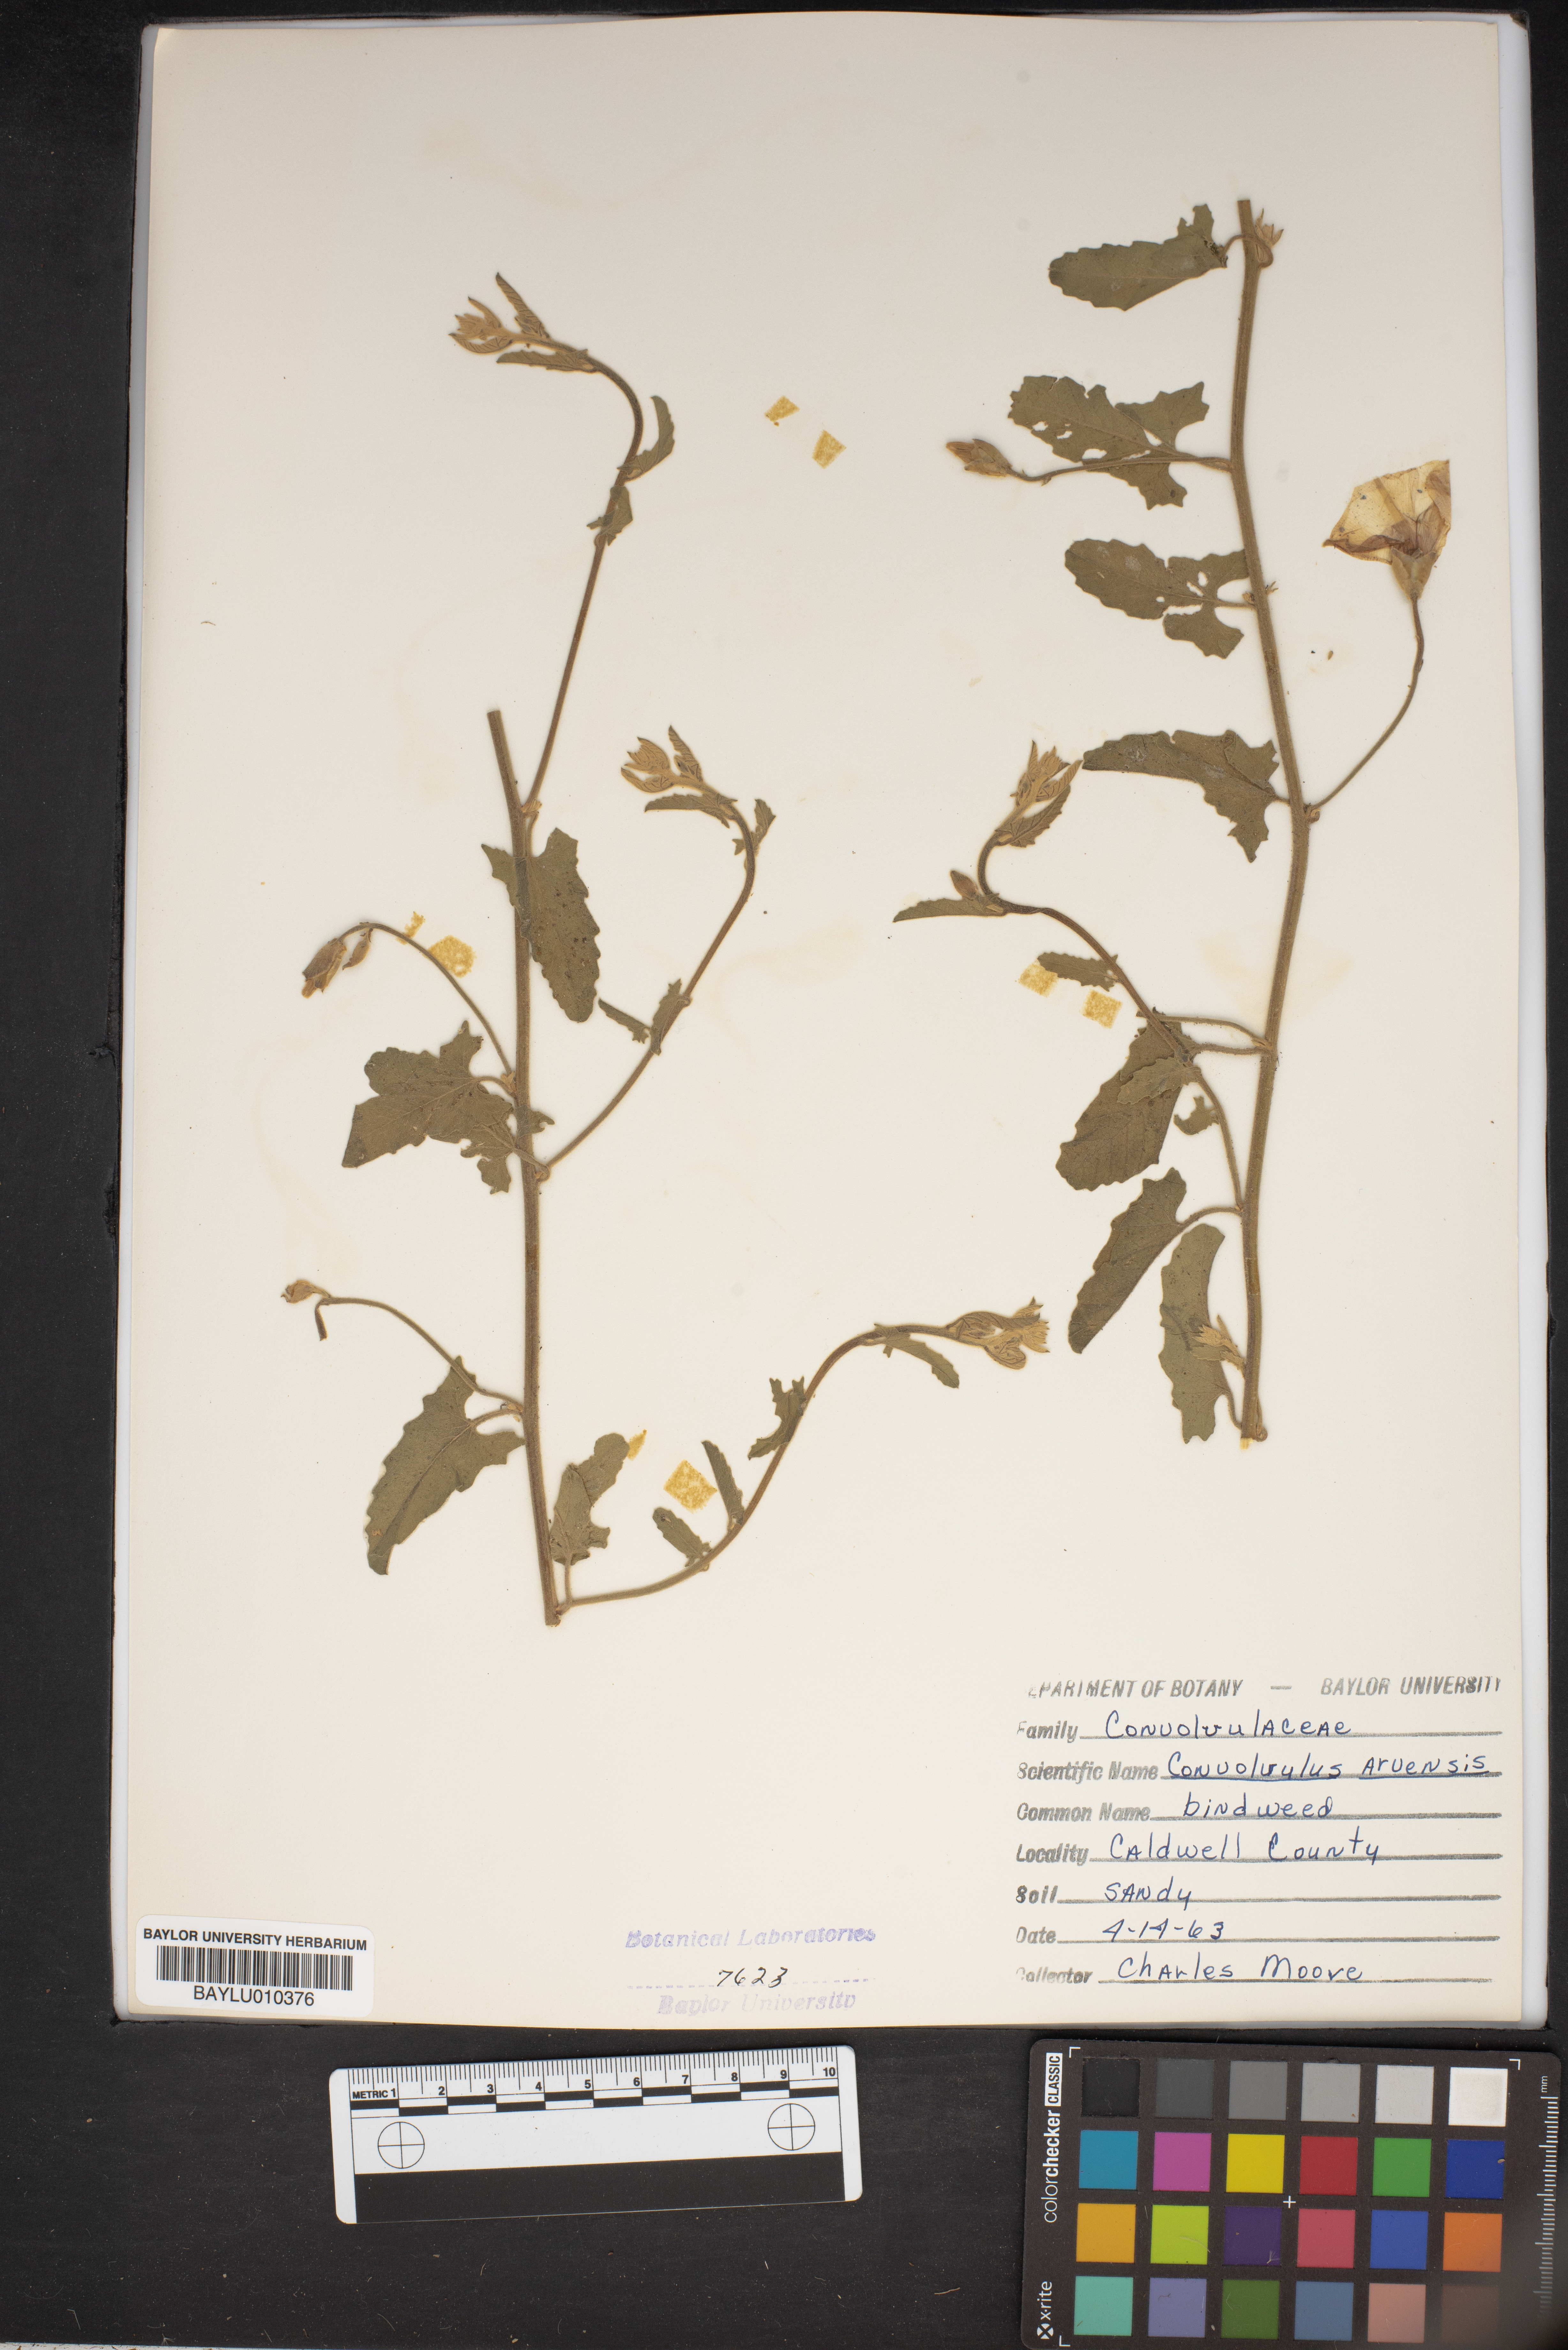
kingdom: Plantae
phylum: Tracheophyta
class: Magnoliopsida
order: Solanales
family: Convolvulaceae
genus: Convolvulus
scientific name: Convolvulus arvensis
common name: Field bindweed
